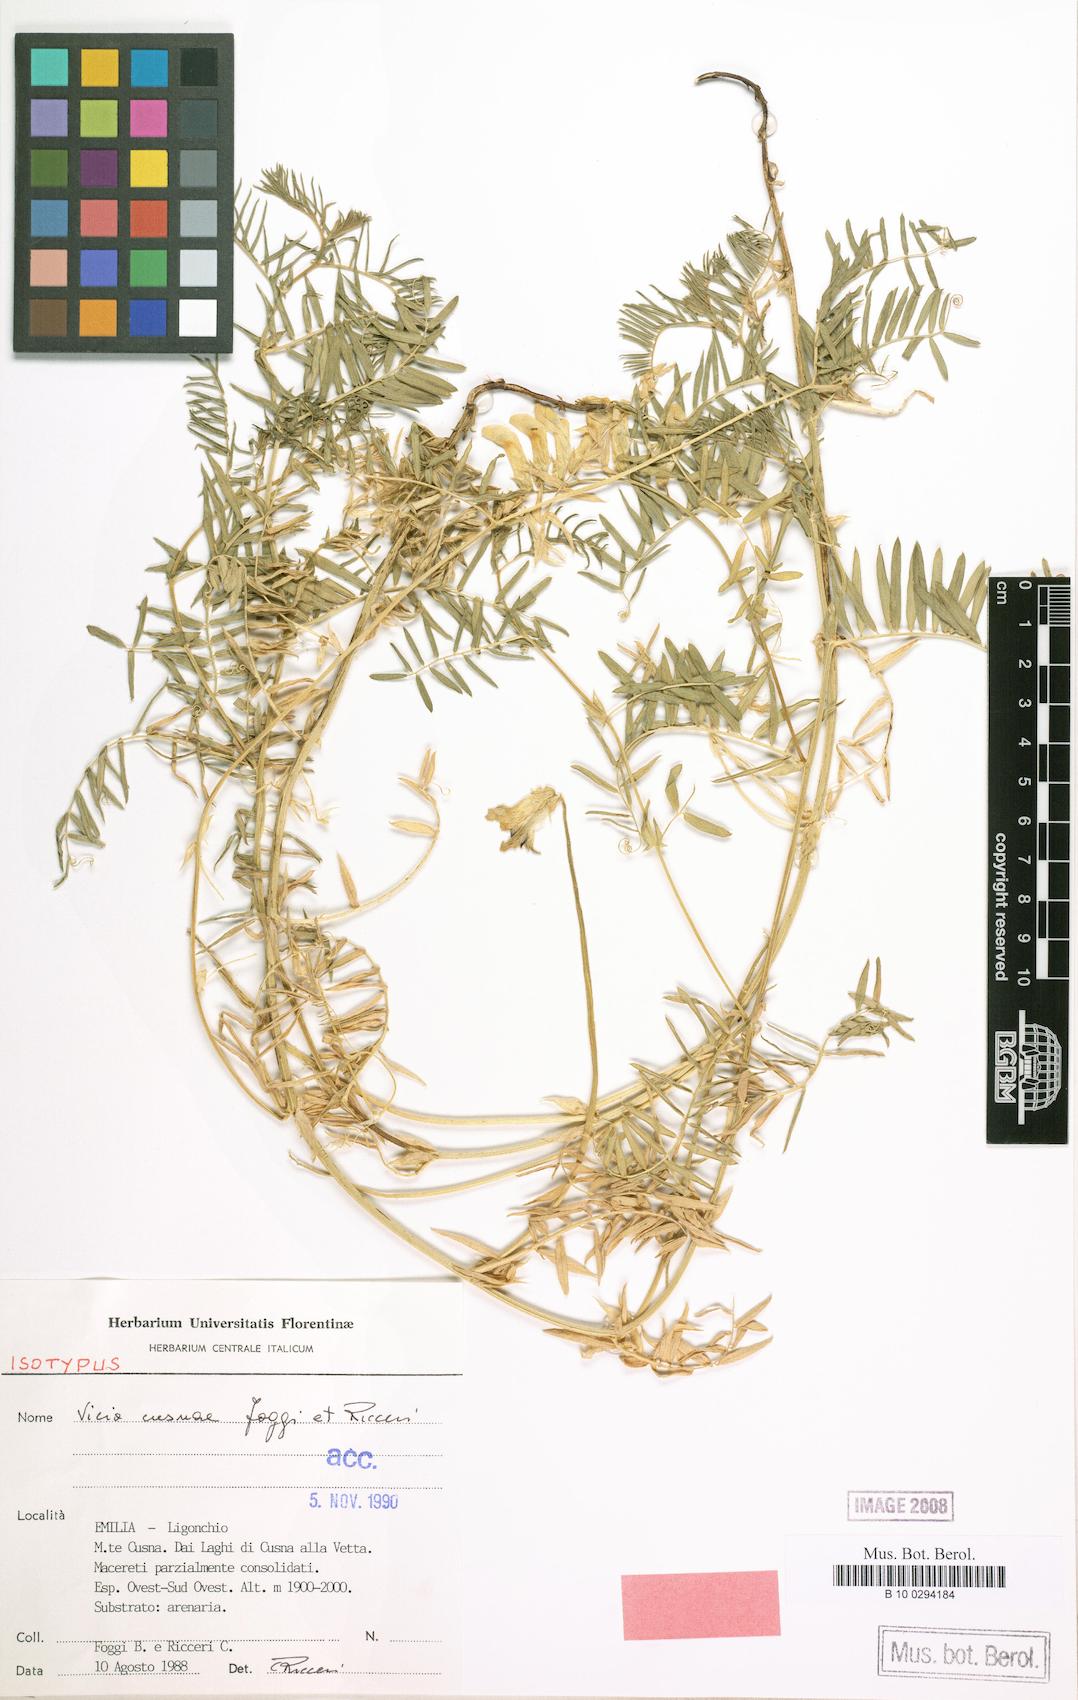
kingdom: Plantae
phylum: Tracheophyta
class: Magnoliopsida
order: Fabales
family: Fabaceae
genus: Vicia
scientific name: Vicia cusnae
